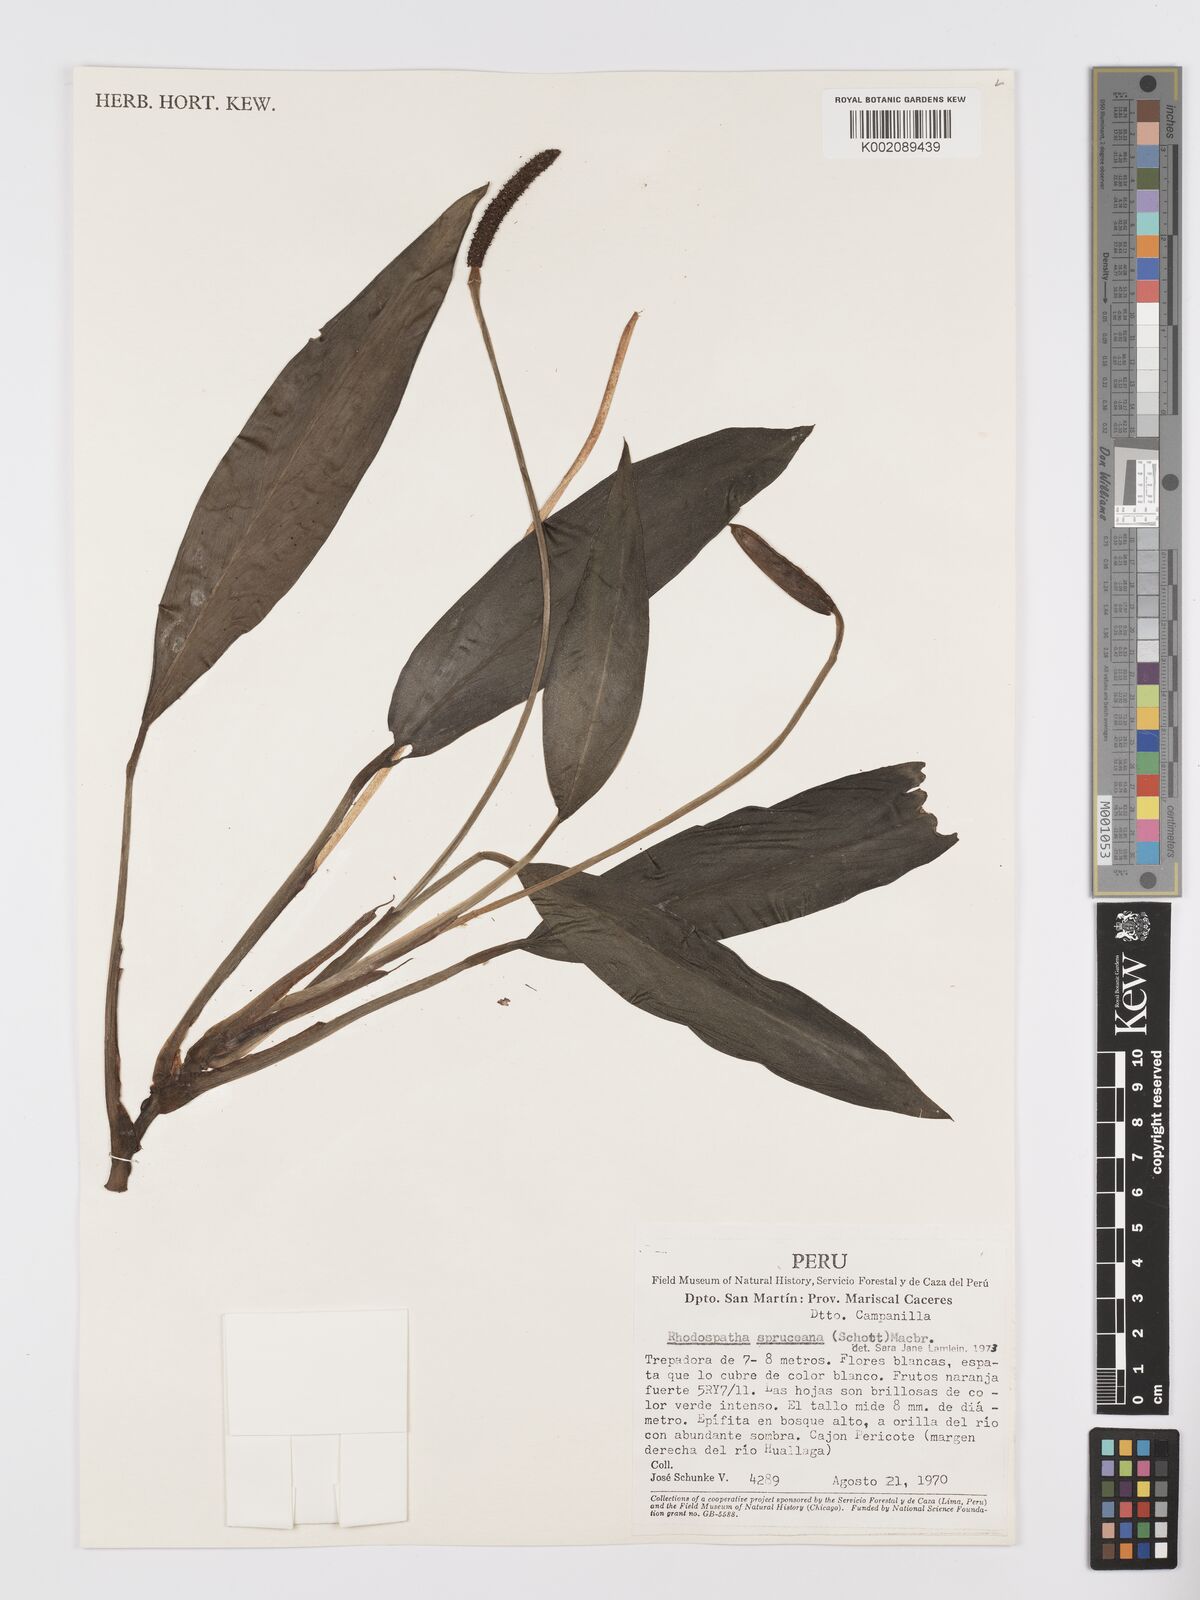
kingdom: Plantae
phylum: Tracheophyta
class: Liliopsida
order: Alismatales
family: Araceae
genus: Stenospermation
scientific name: Stenospermation spruceanum
